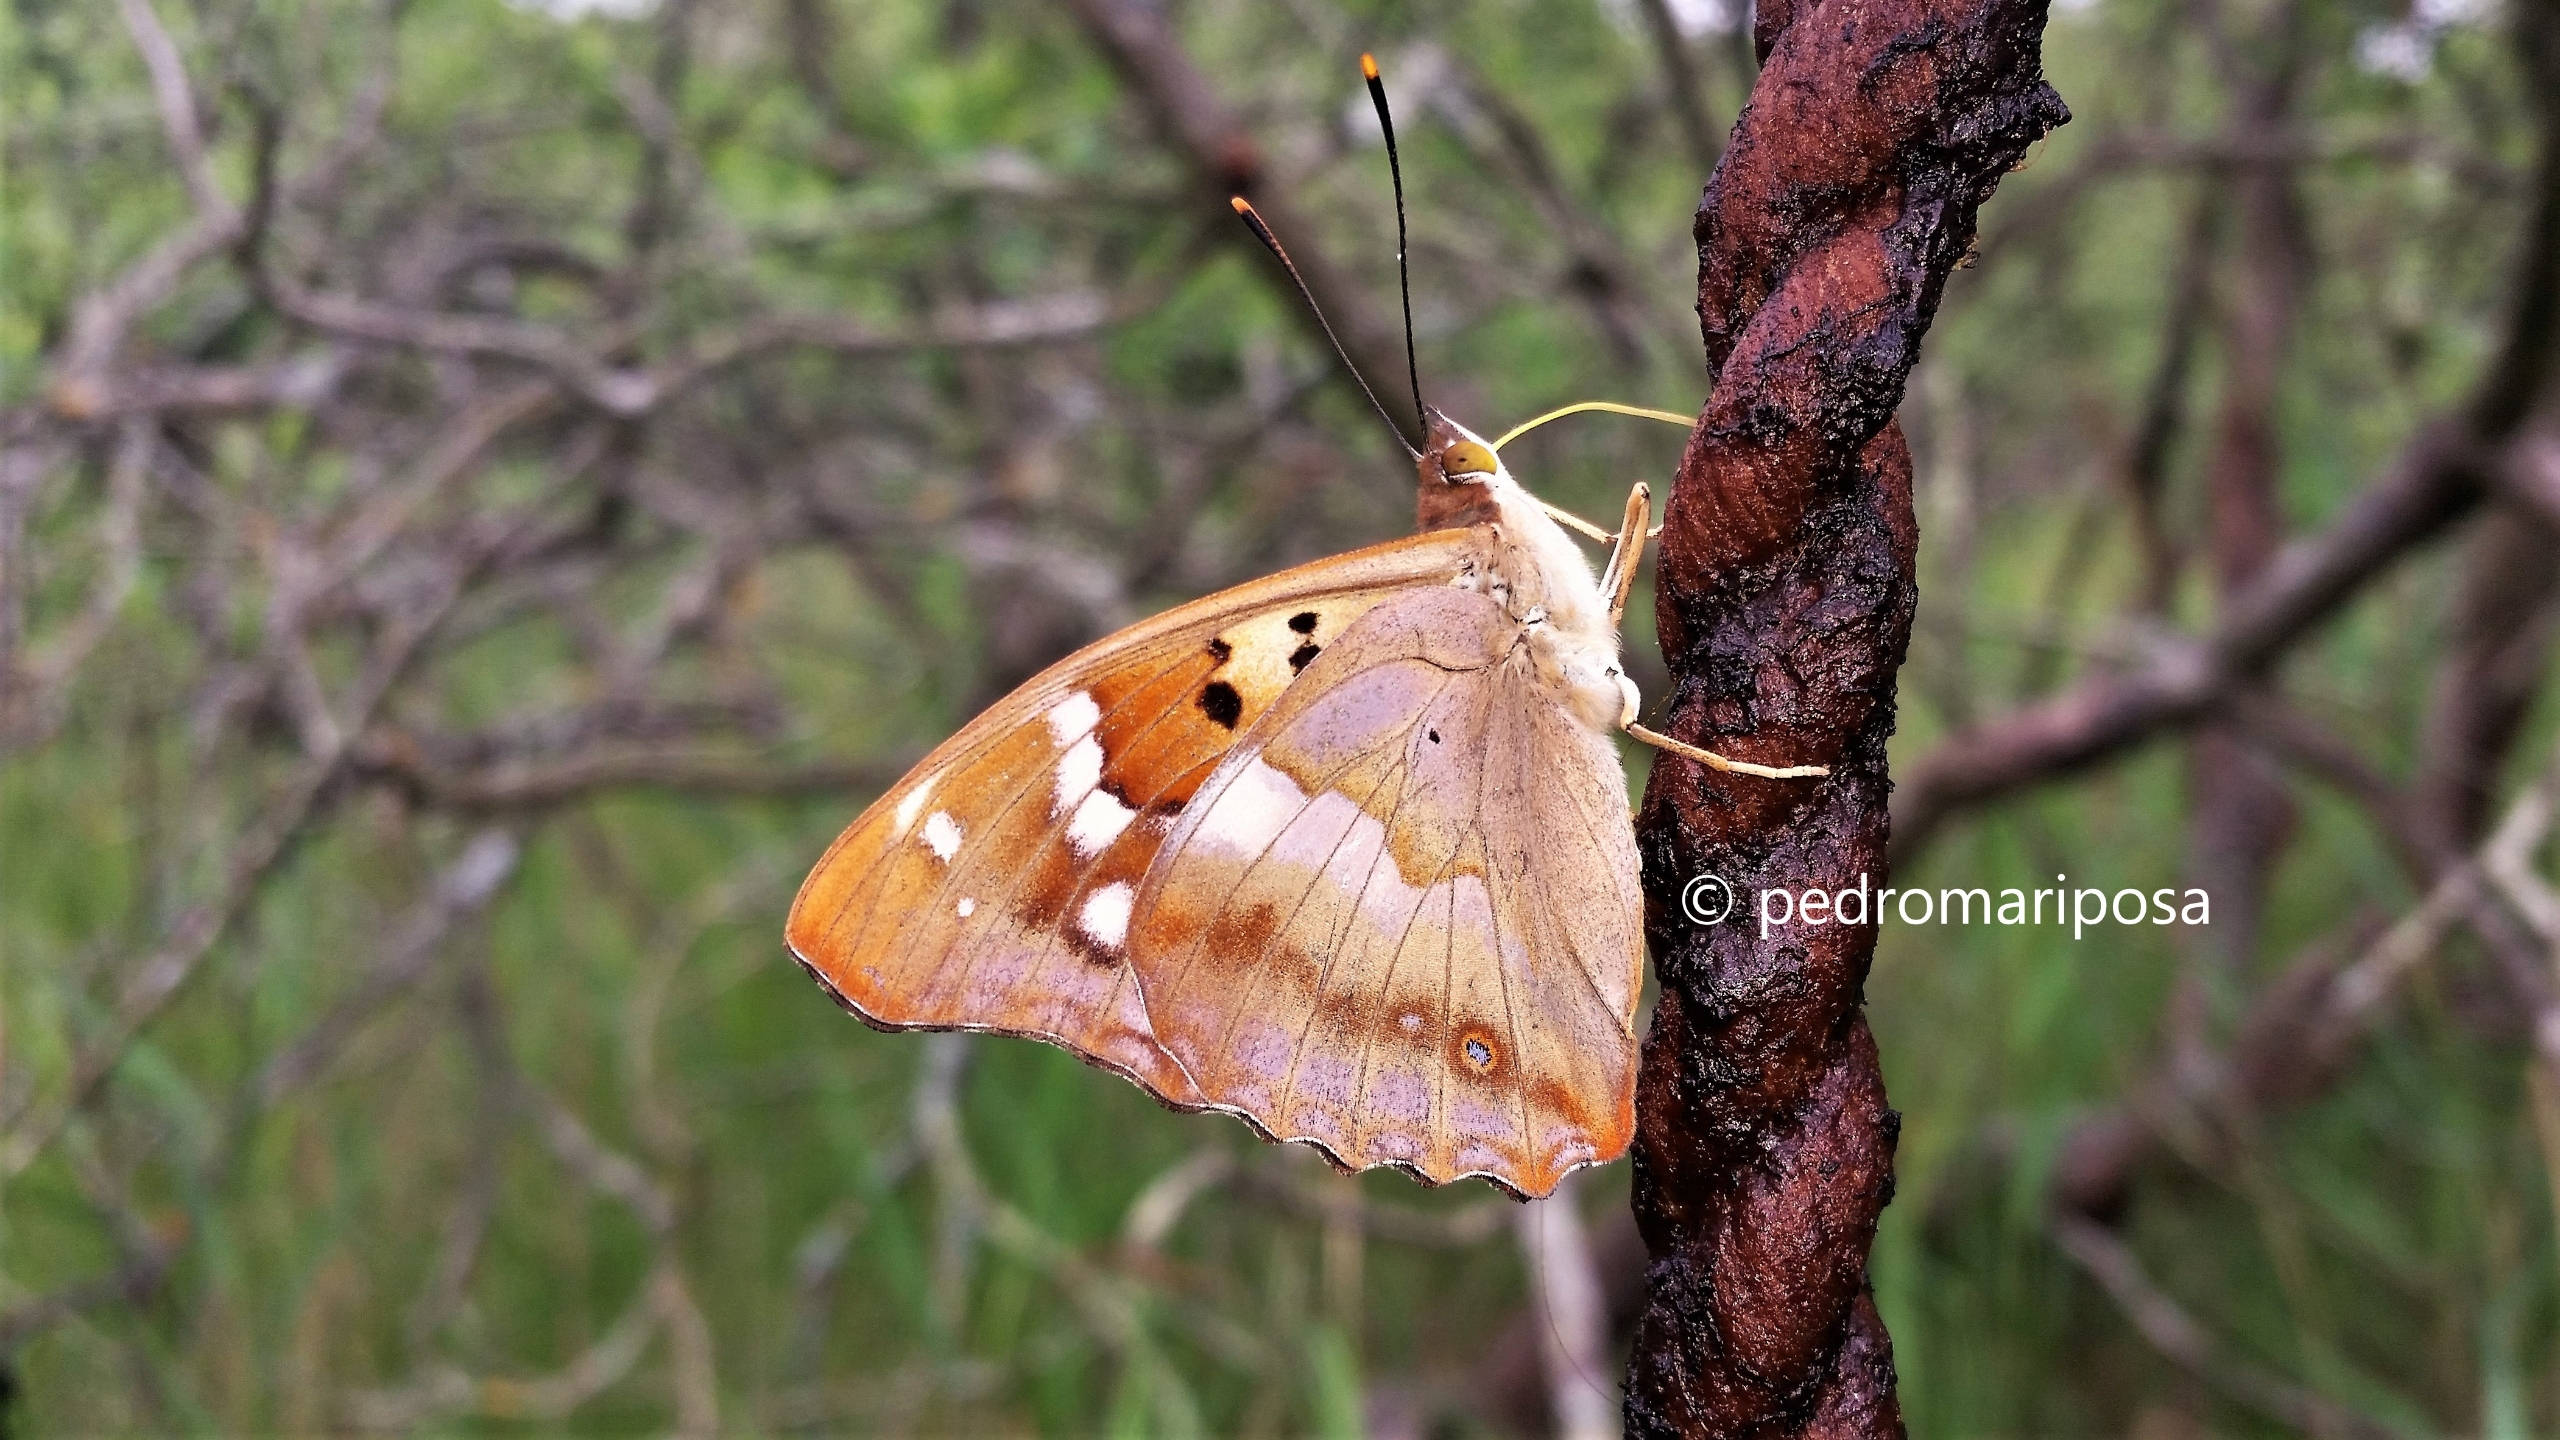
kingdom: Animalia
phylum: Arthropoda
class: Insecta
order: Lepidoptera
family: Nymphalidae
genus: Apatura
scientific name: Apatura ilia
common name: Ilia
